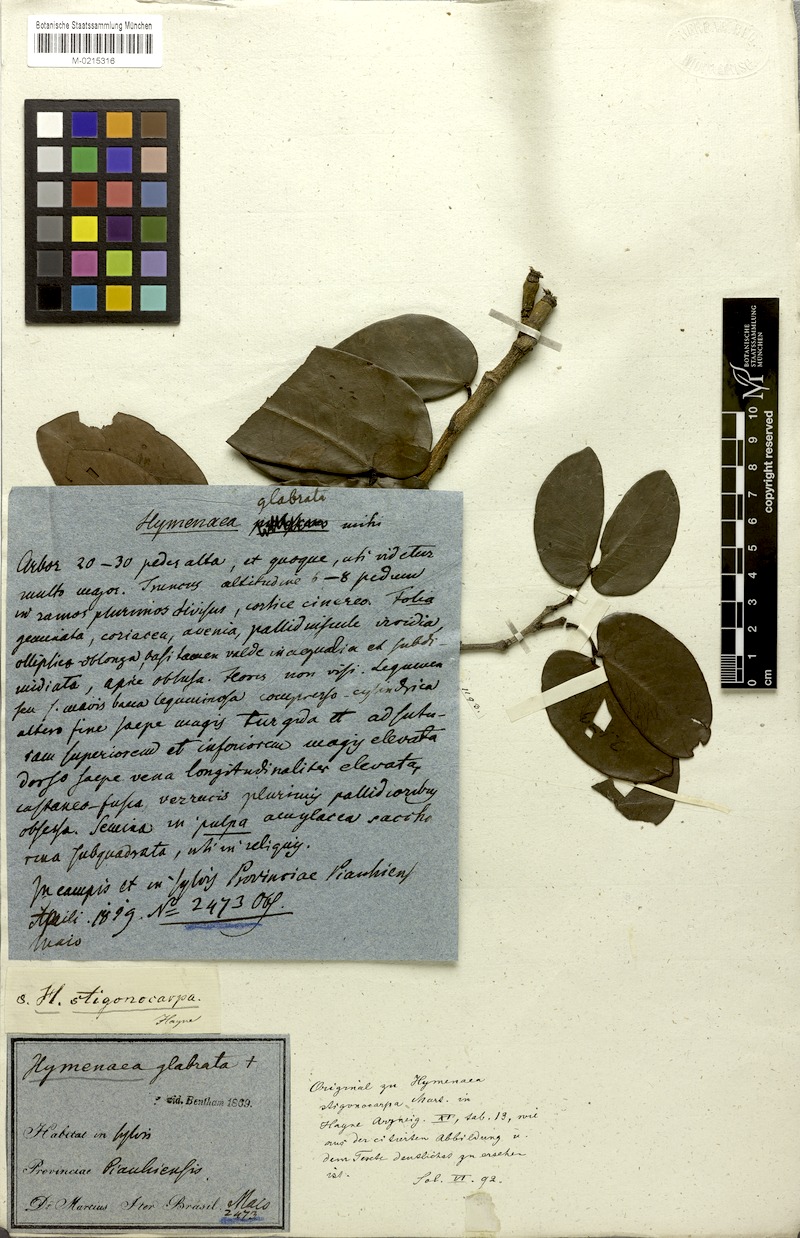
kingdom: Plantae
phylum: Tracheophyta
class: Magnoliopsida
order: Fabales
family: Fabaceae
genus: Hymenaea
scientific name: Hymenaea stigonocarpa
